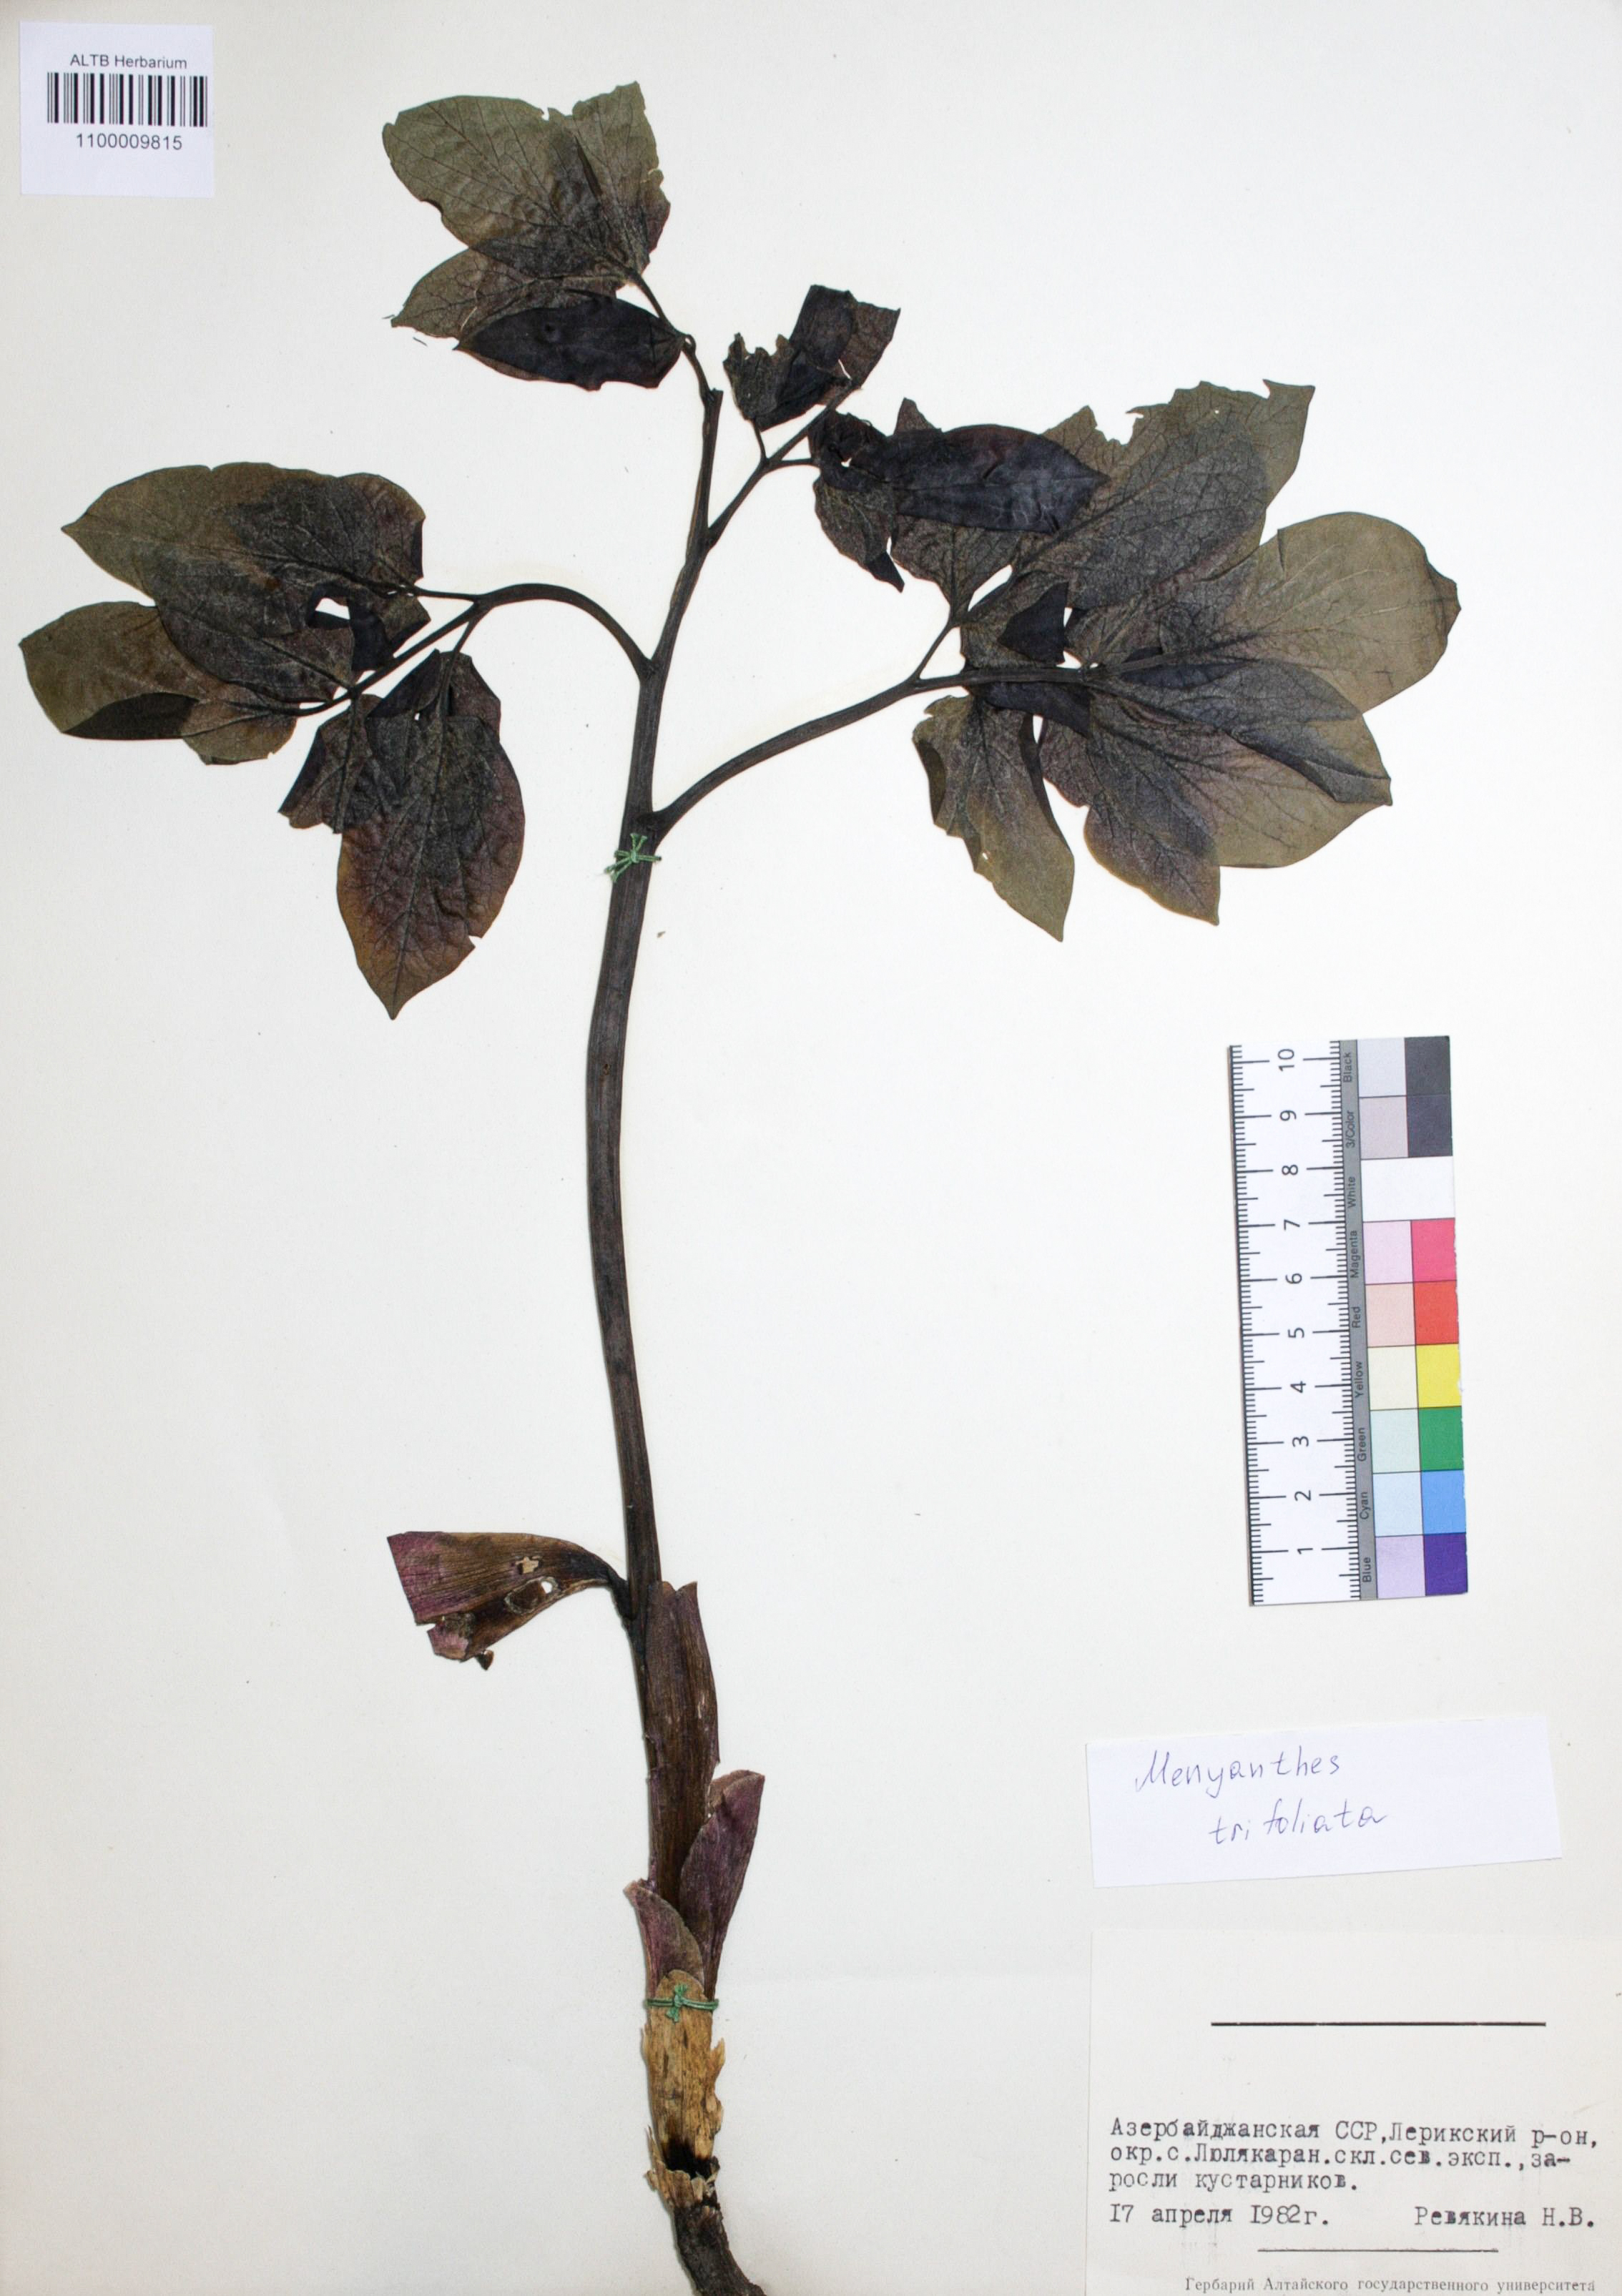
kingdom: Plantae
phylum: Tracheophyta
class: Magnoliopsida
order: Asterales
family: Menyanthaceae
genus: Menyanthes
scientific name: Menyanthes trifoliata
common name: Bogbean
